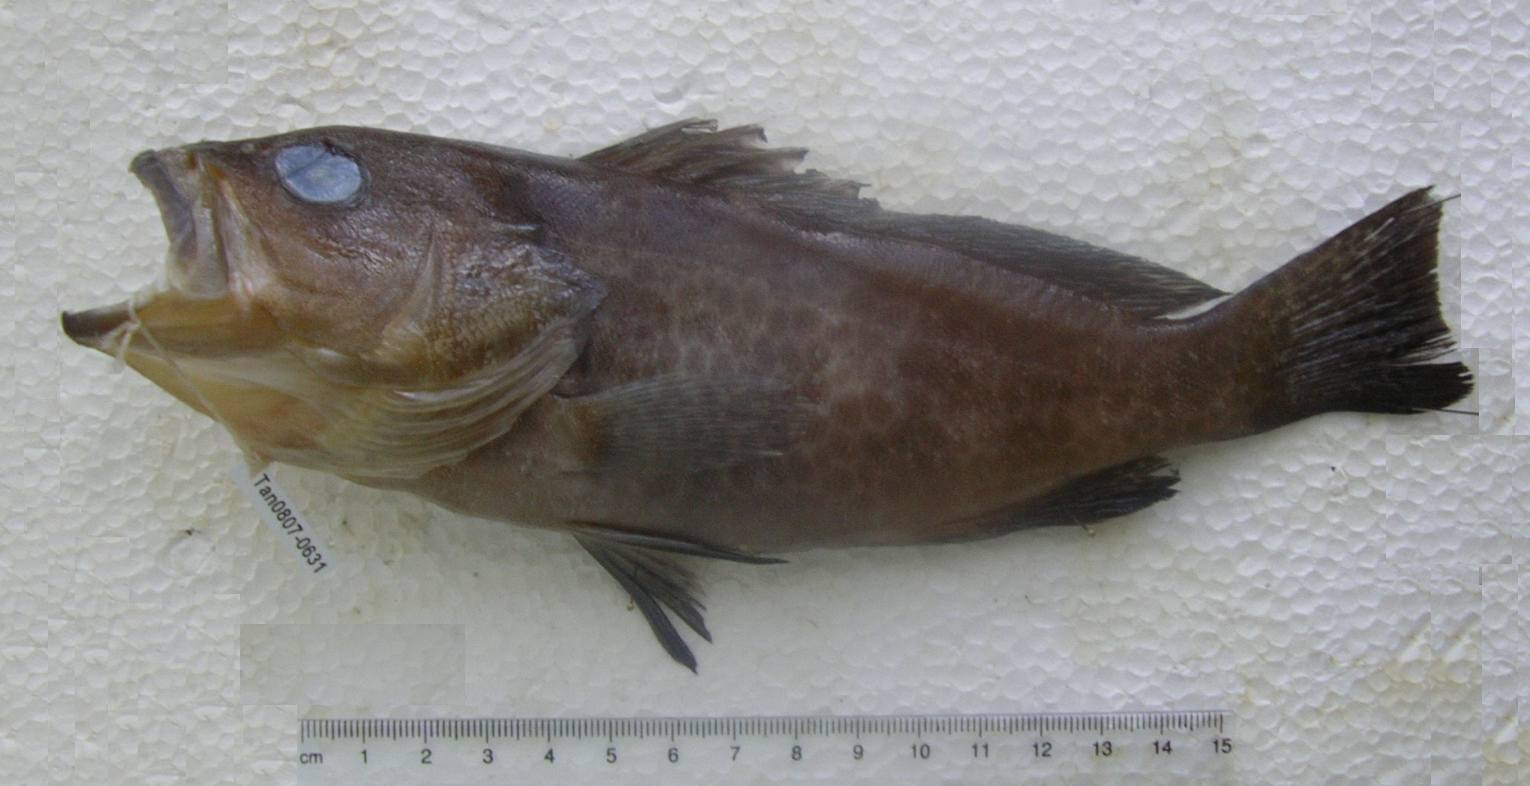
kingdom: Animalia
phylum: Chordata
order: Perciformes
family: Serranidae
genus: Epinephelus
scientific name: Epinephelus areolatus
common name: Areolate grouper
